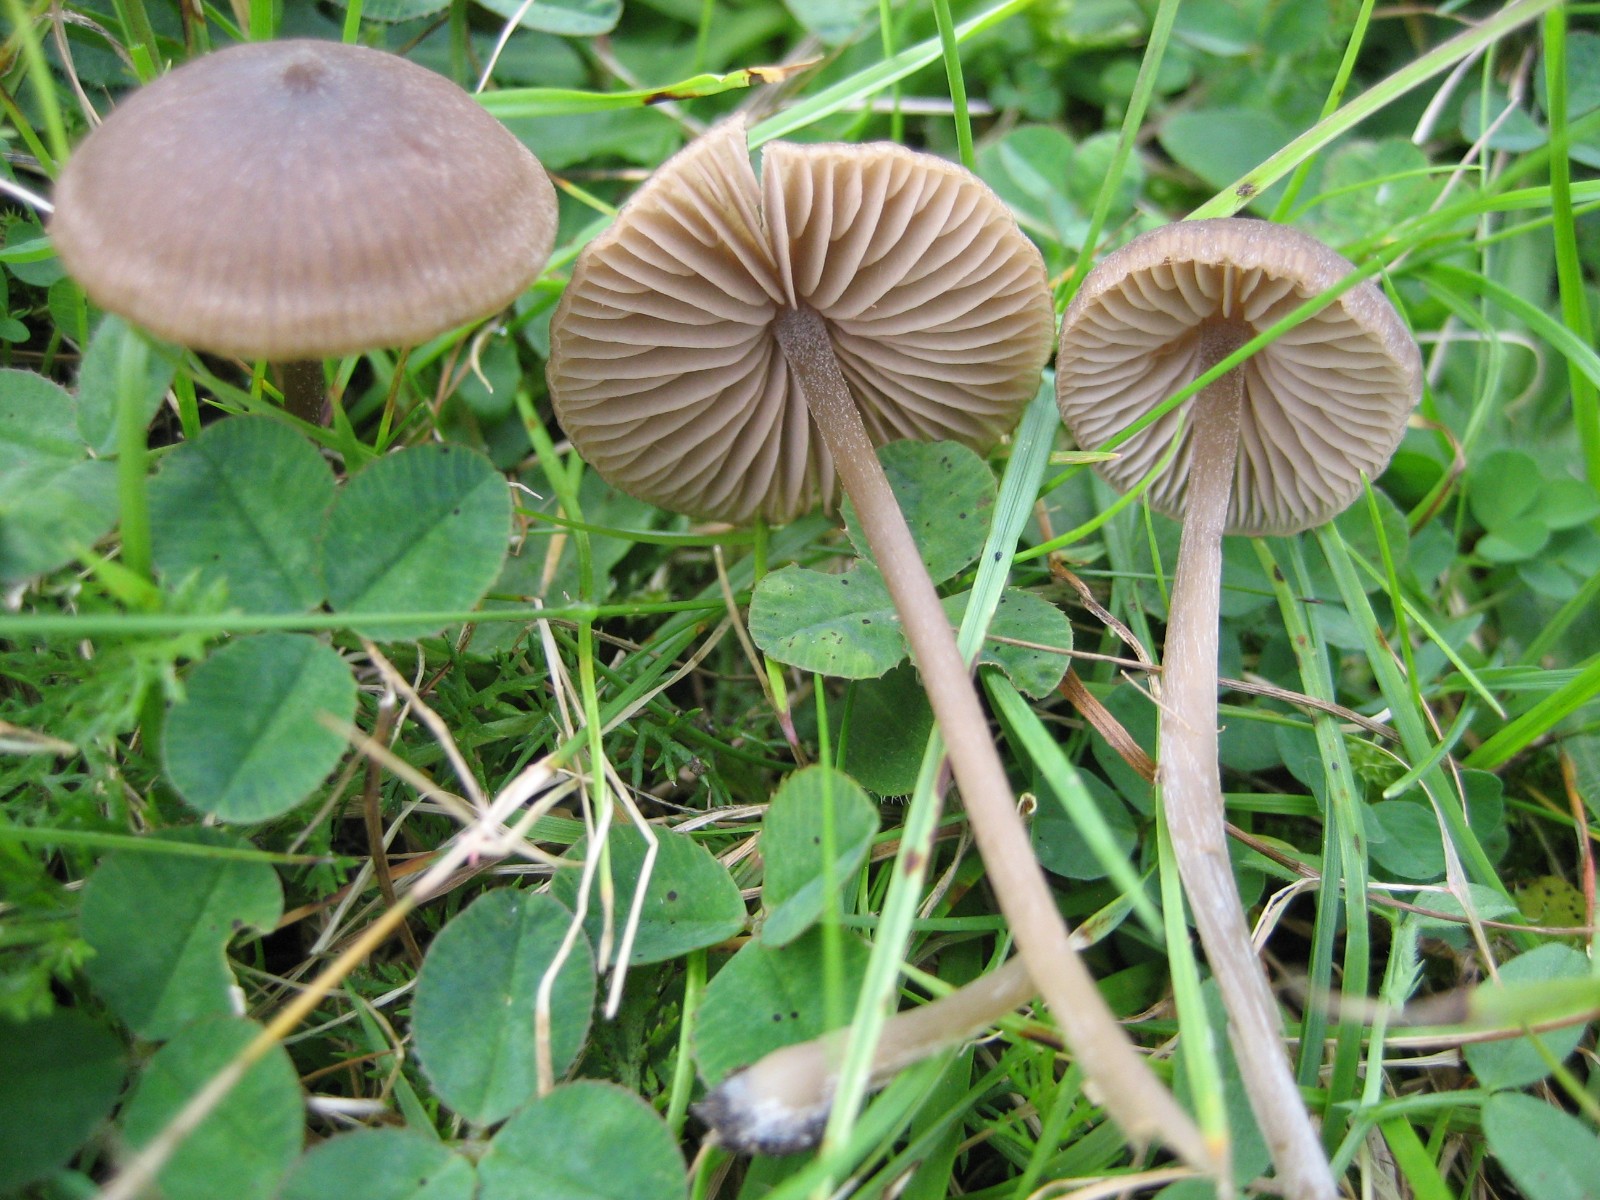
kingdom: Fungi
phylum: Basidiomycota
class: Agaricomycetes
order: Agaricales
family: Entolomataceae
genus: Entoloma
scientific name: Entoloma
